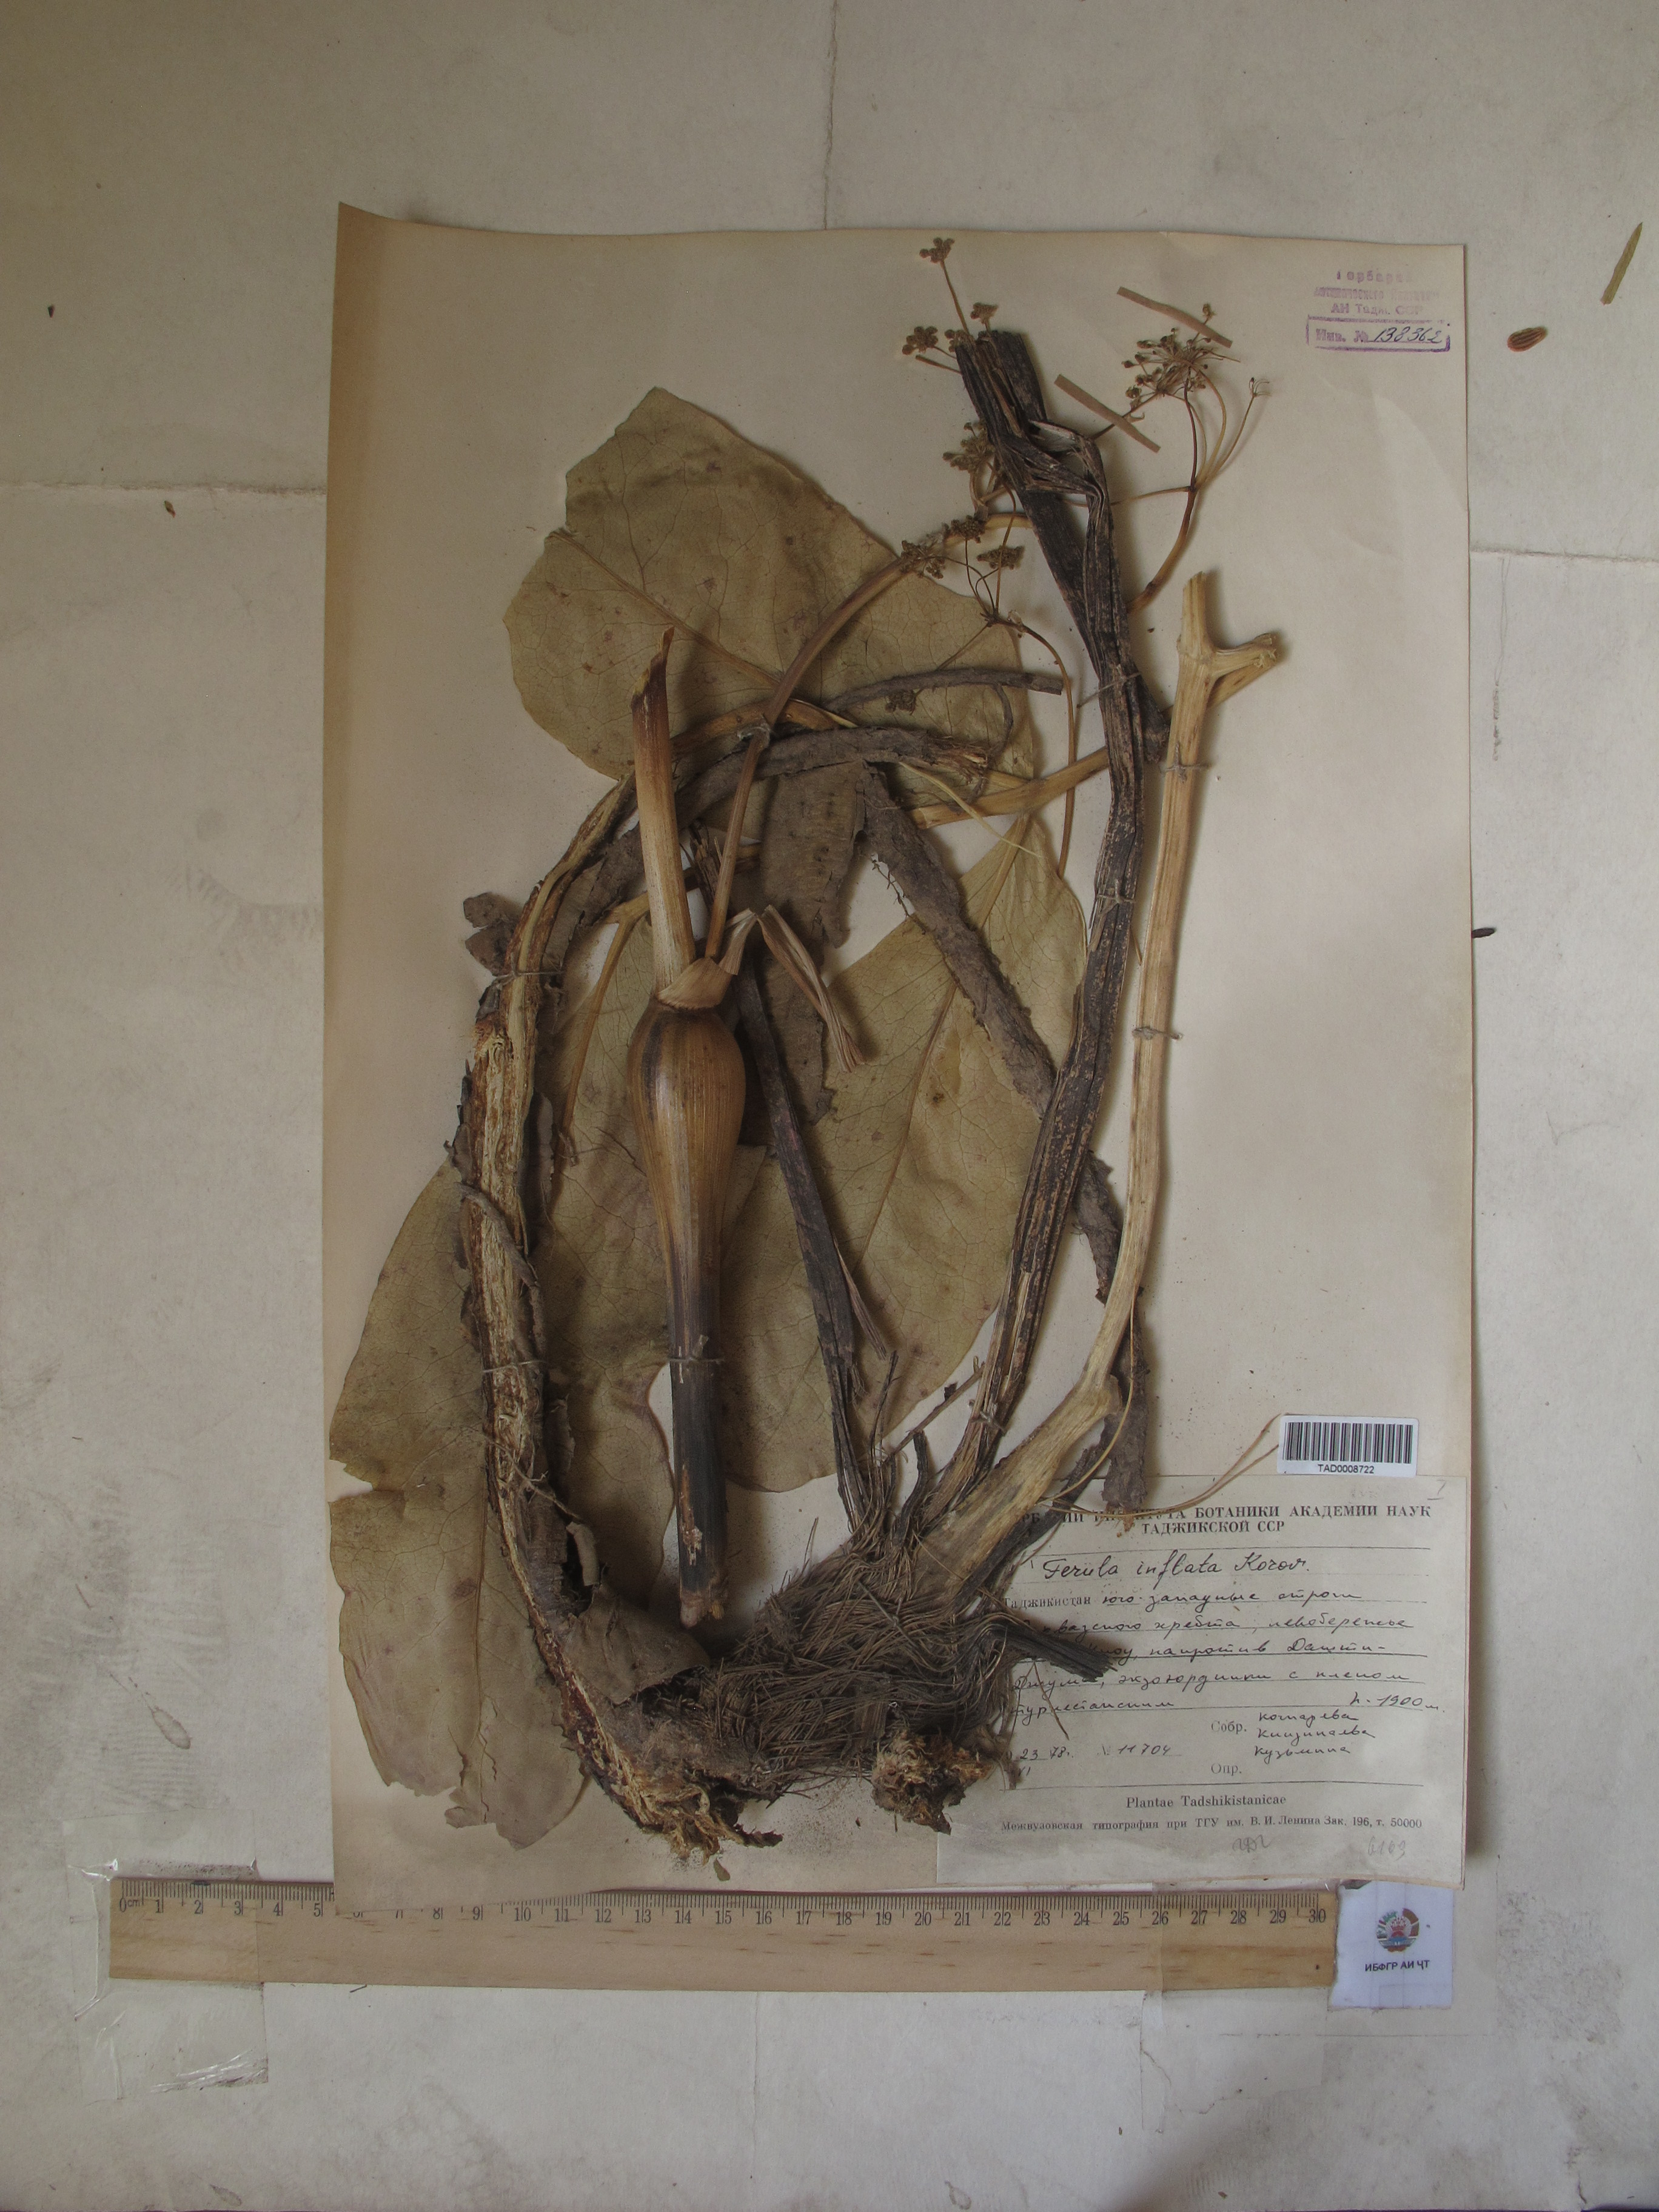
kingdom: Plantae
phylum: Tracheophyta
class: Magnoliopsida
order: Apiales
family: Apiaceae
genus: Ferula
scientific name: Ferula gigantea
